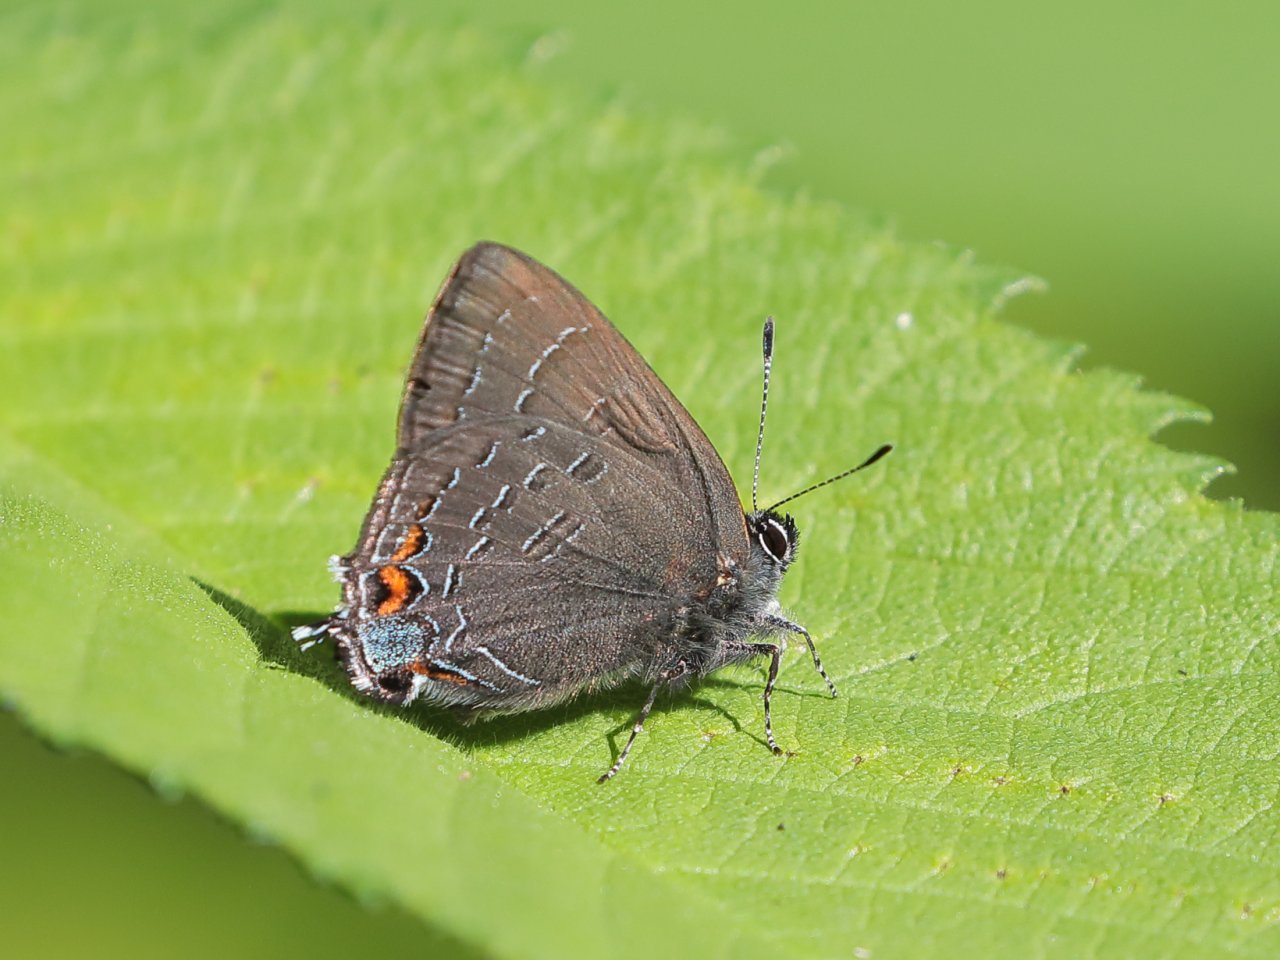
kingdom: Animalia
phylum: Arthropoda
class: Insecta
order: Lepidoptera
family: Lycaenidae
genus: Satyrium
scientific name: Satyrium calanus
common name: Banded Hairstreak
